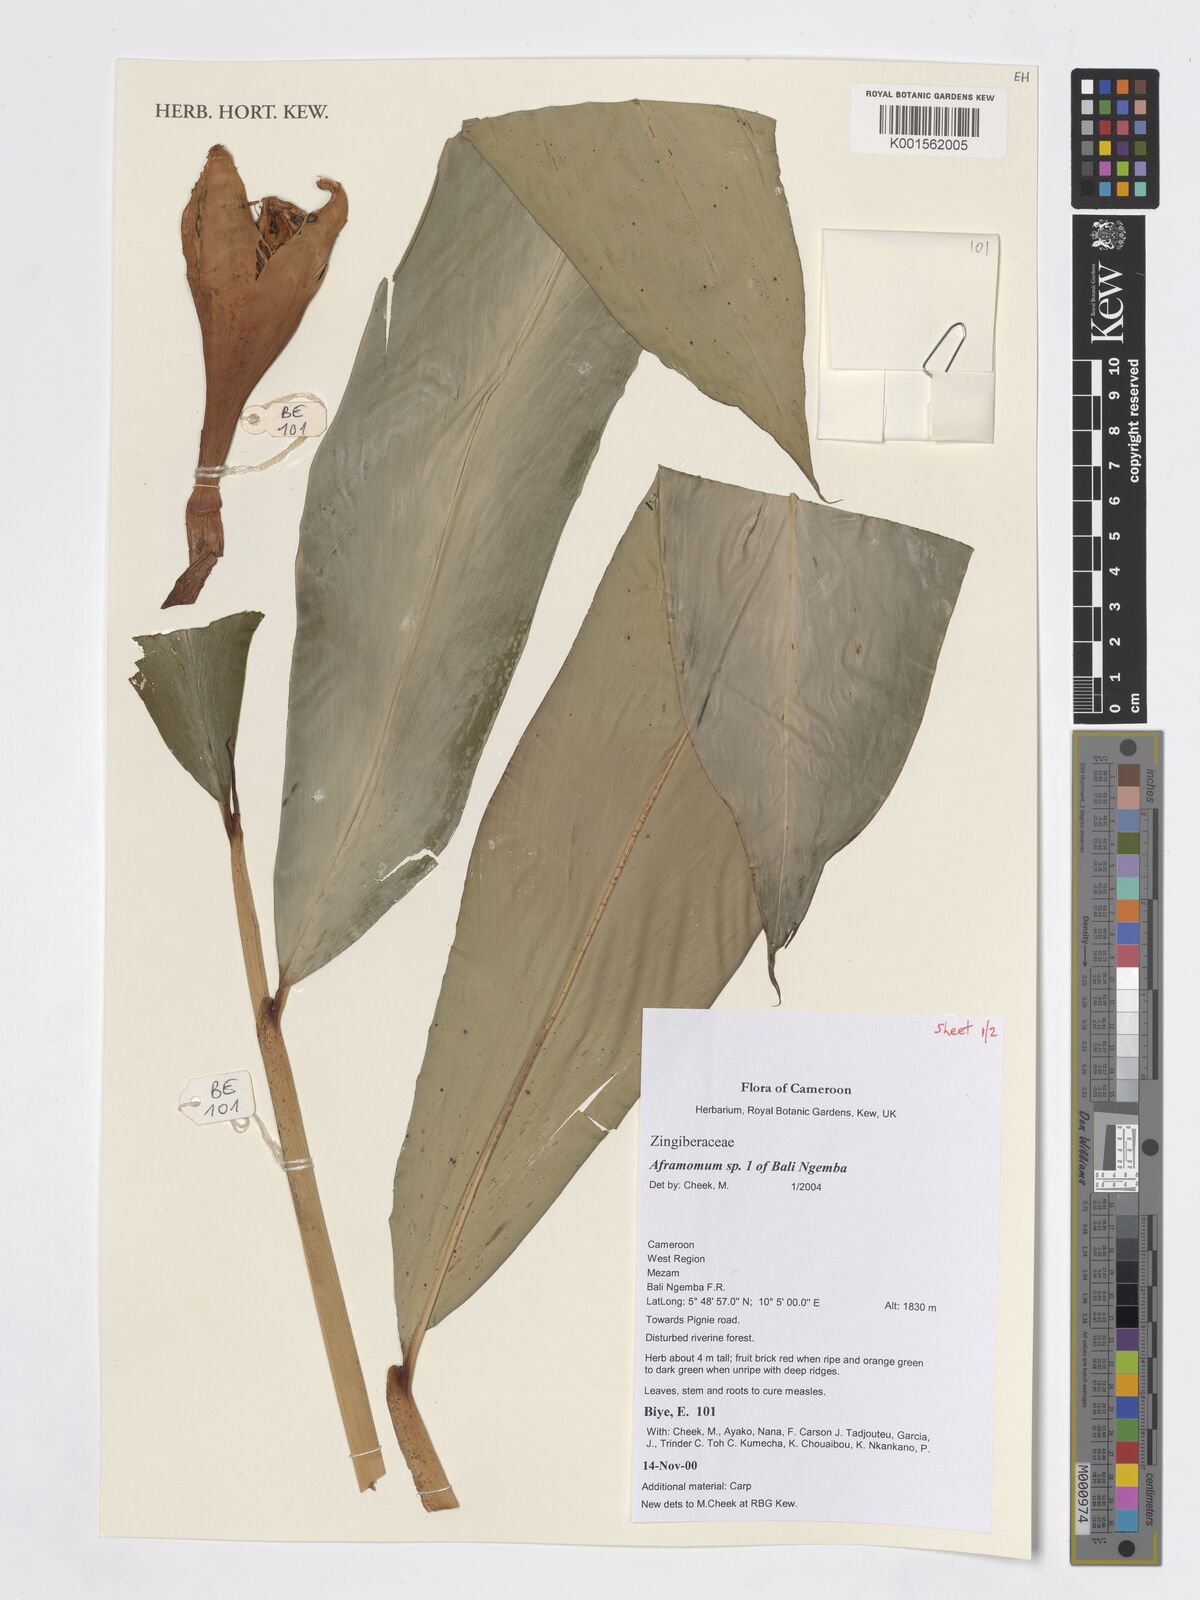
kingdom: Plantae
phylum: Tracheophyta
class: Liliopsida
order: Zingiberales
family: Zingiberaceae
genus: Aframomum
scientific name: Aframomum
